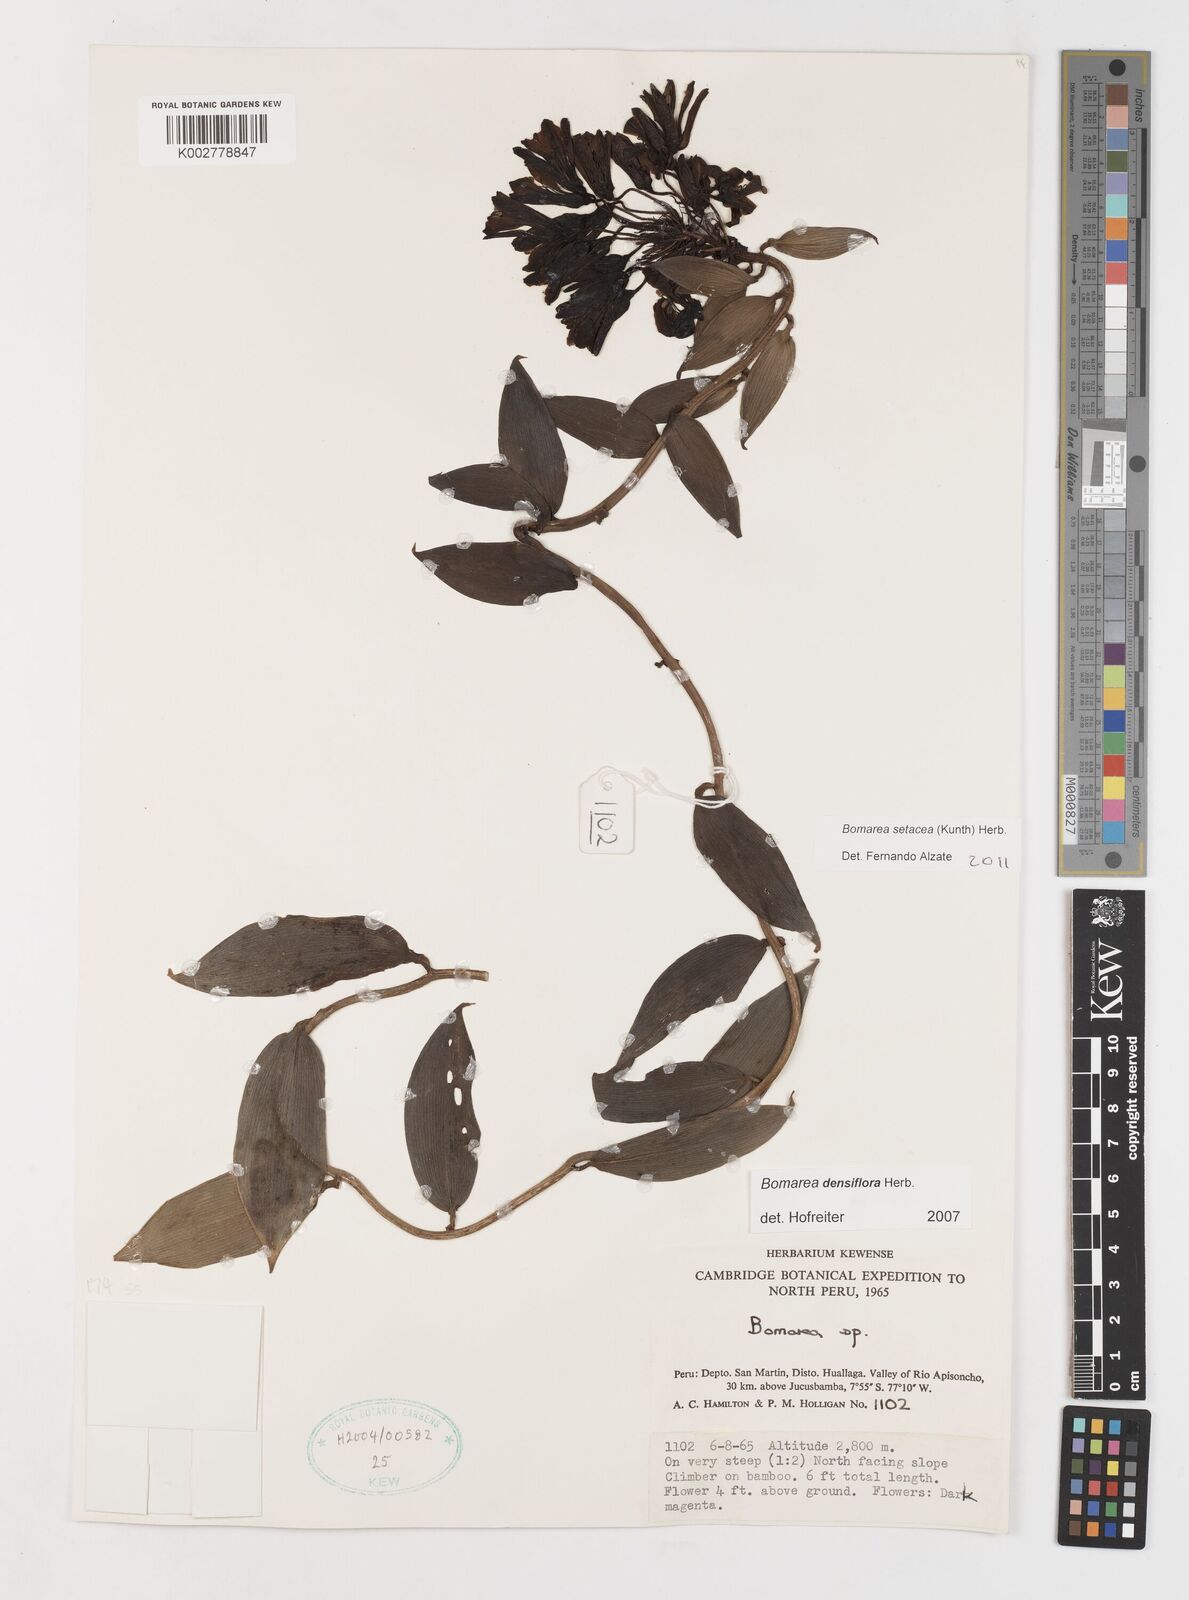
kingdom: Plantae
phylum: Tracheophyta
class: Liliopsida
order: Liliales
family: Alstroemeriaceae
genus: Bomarea
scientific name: Bomarea densiflora
